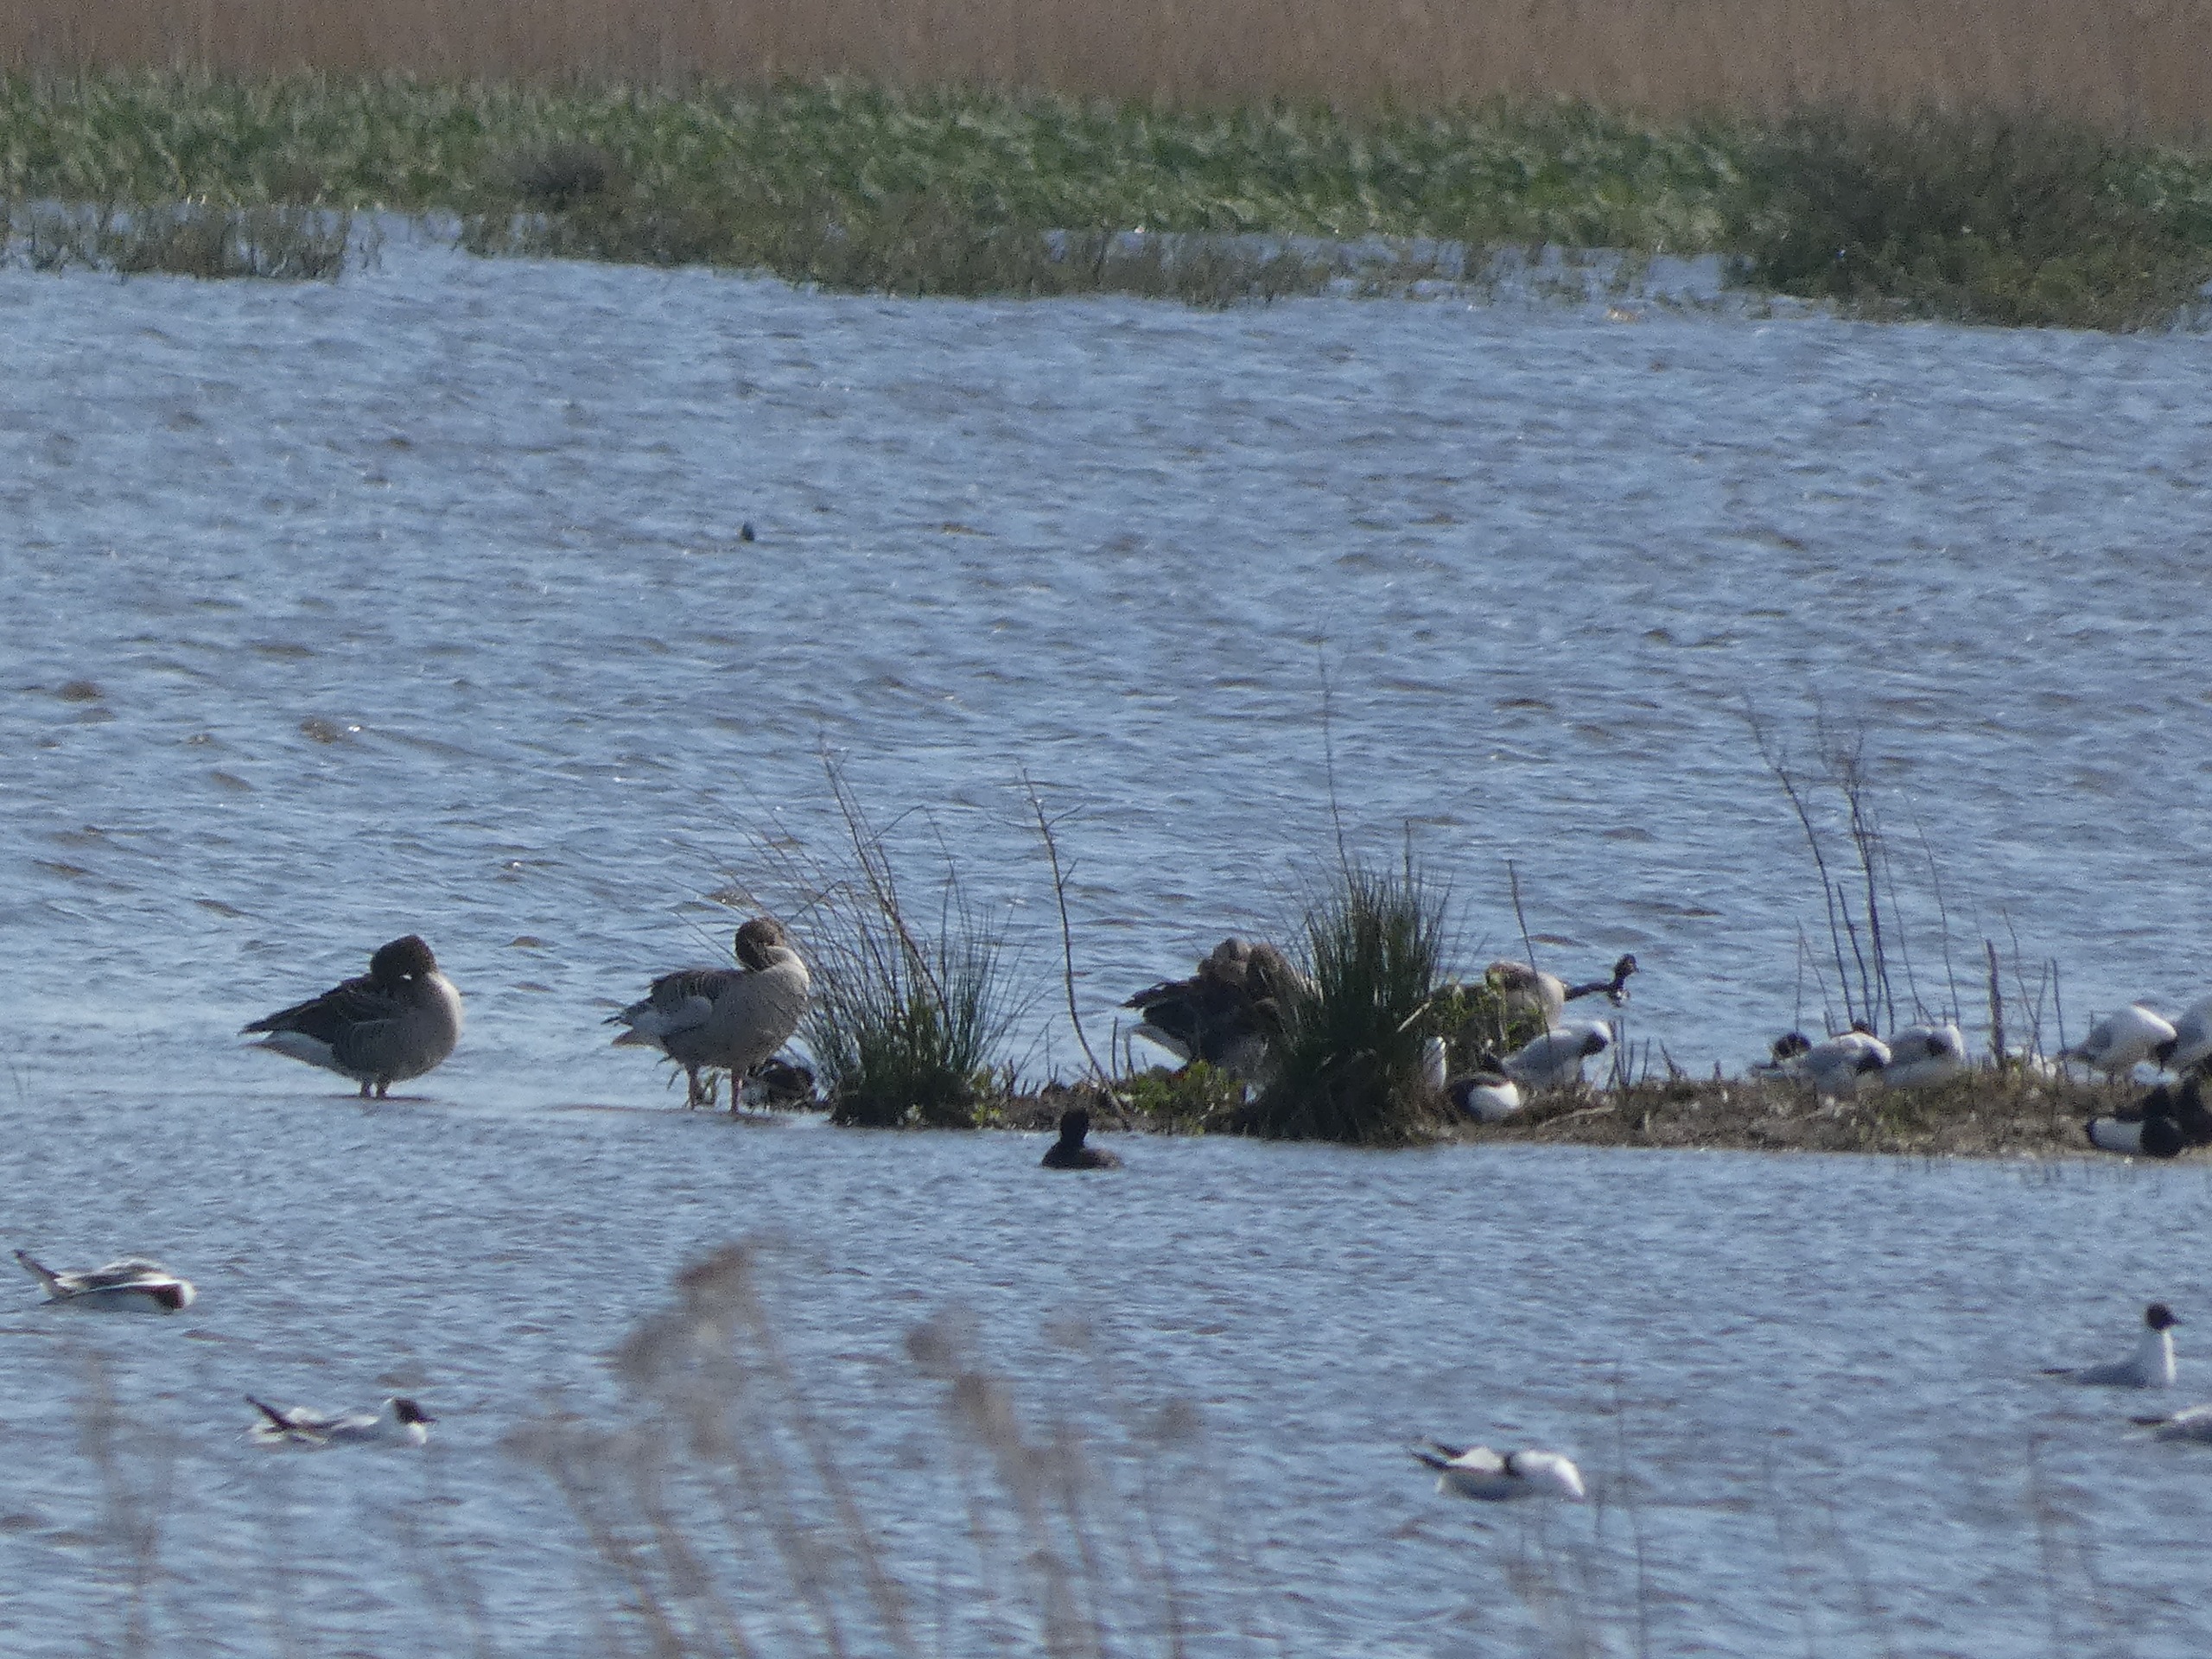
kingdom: Animalia
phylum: Chordata
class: Aves
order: Anseriformes
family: Anatidae
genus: Anser
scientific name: Anser anser
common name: Grågås
